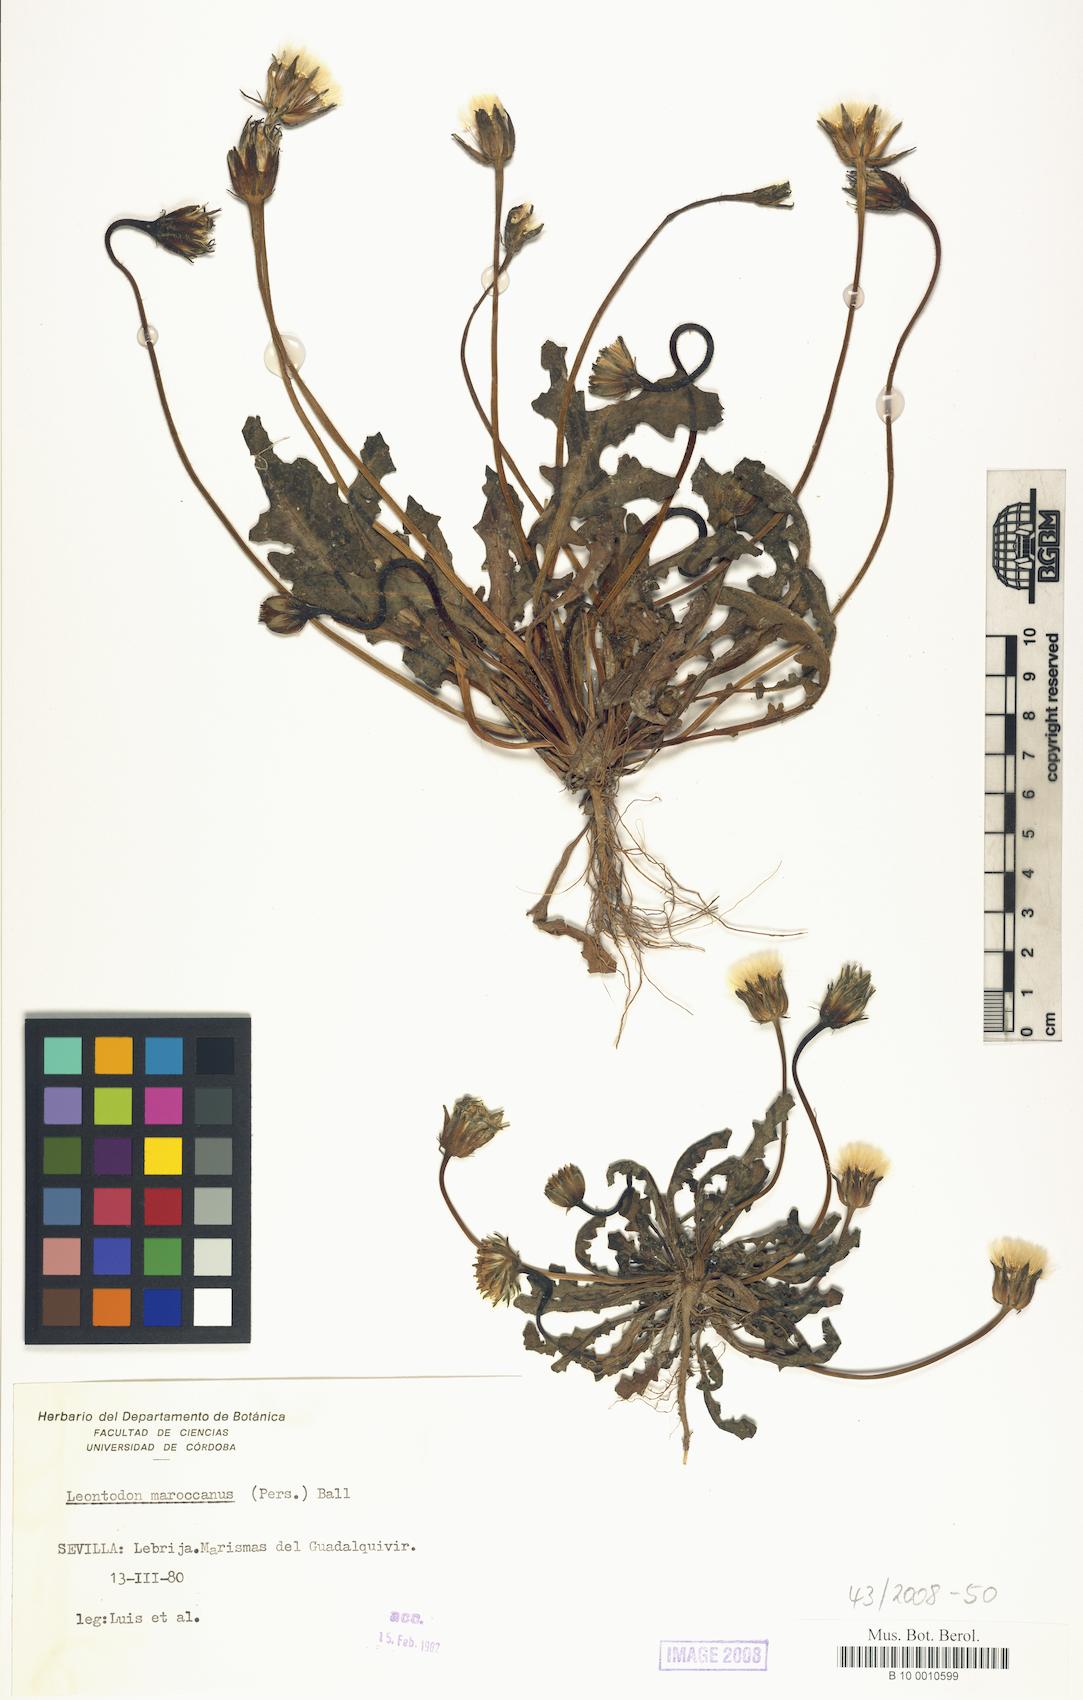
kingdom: Plantae
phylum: Tracheophyta
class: Magnoliopsida
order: Asterales
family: Asteraceae
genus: Thrincia
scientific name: Thrincia maroccana
